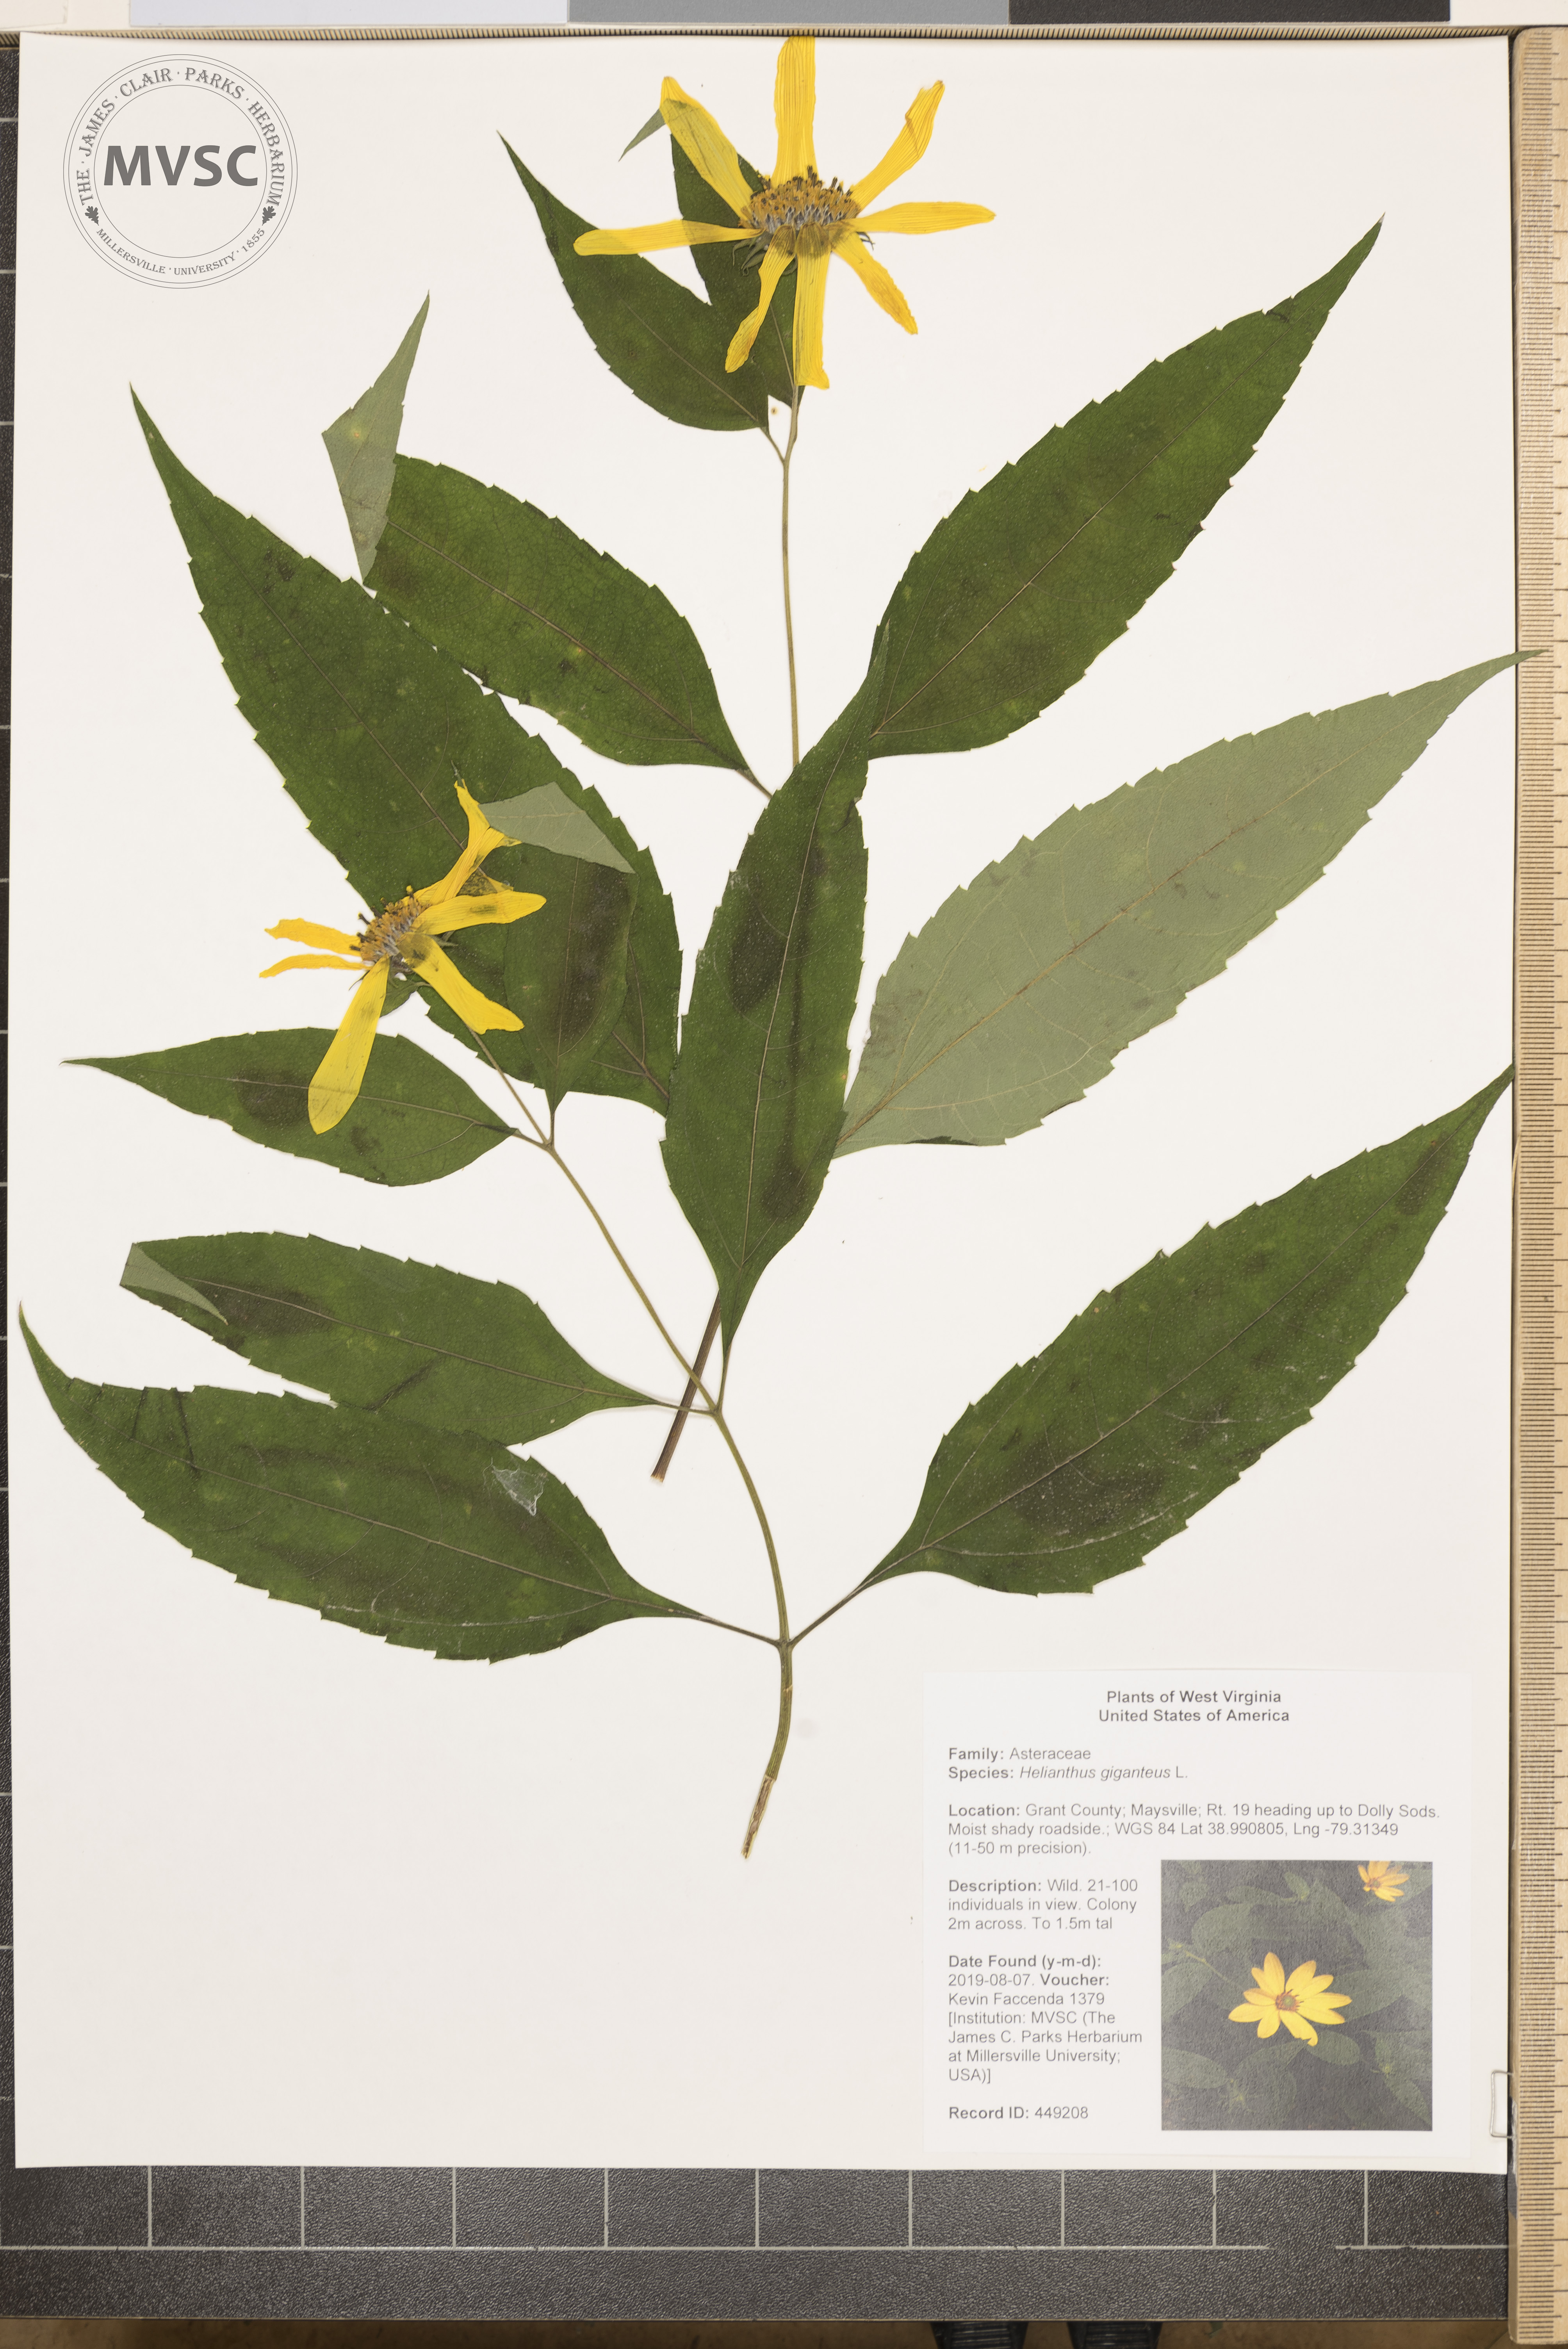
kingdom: Plantae
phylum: Tracheophyta
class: Magnoliopsida
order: Asterales
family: Asteraceae
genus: Helianthus
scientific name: Helianthus giganteus
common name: Giant sunflower
